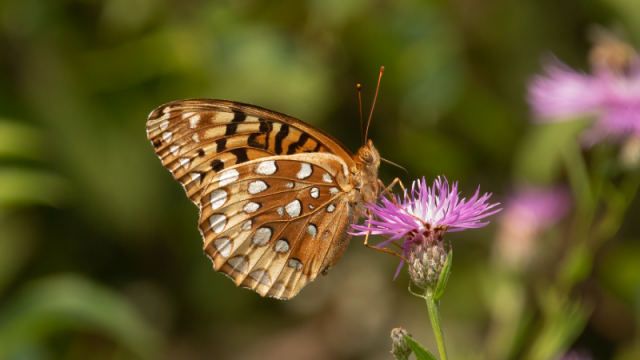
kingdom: Animalia
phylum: Arthropoda
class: Insecta
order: Lepidoptera
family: Nymphalidae
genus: Speyeria
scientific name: Speyeria cybele
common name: Great Spangled Fritillary
